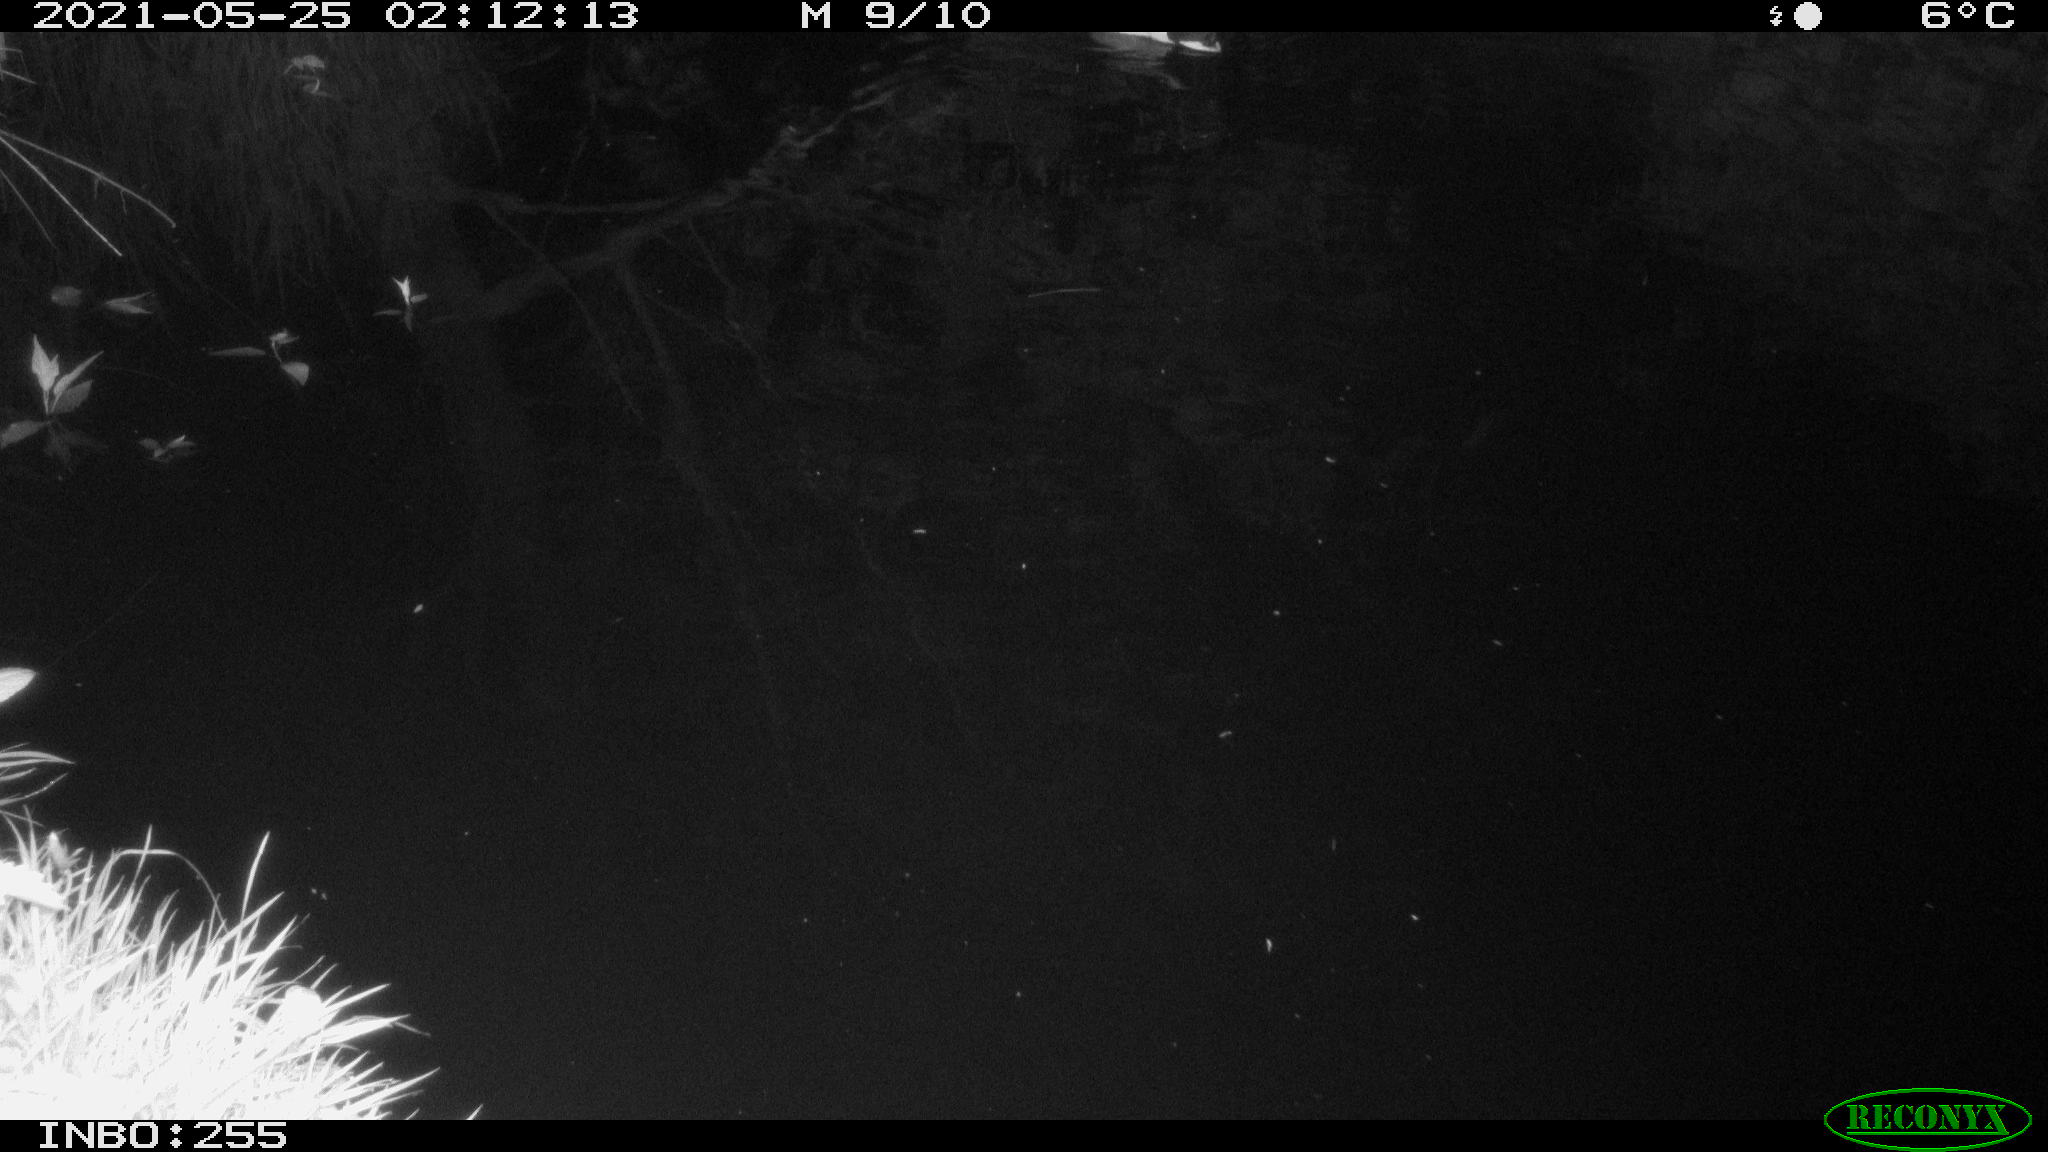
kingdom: Animalia
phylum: Chordata
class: Aves
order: Anseriformes
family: Anatidae
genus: Anas
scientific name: Anas platyrhynchos
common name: Mallard
